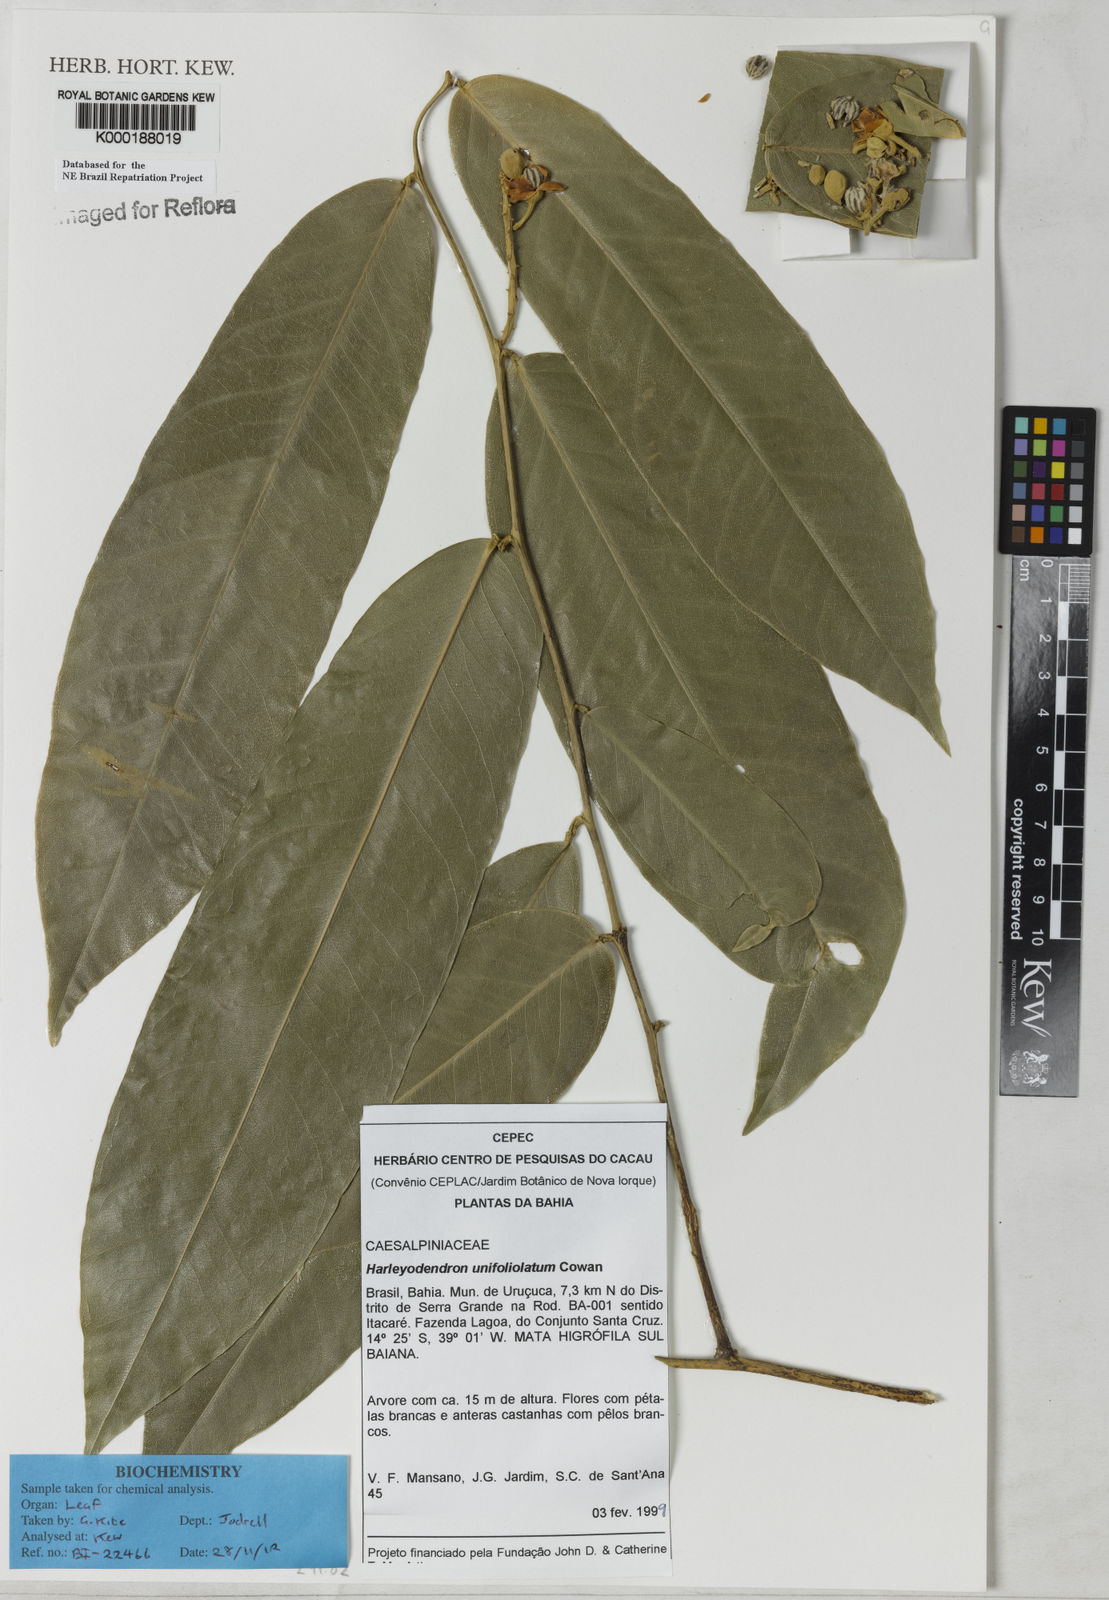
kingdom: Plantae
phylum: Tracheophyta
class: Magnoliopsida
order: Fabales
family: Fabaceae
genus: Harleyodendron
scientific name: Harleyodendron unifoliolatum
